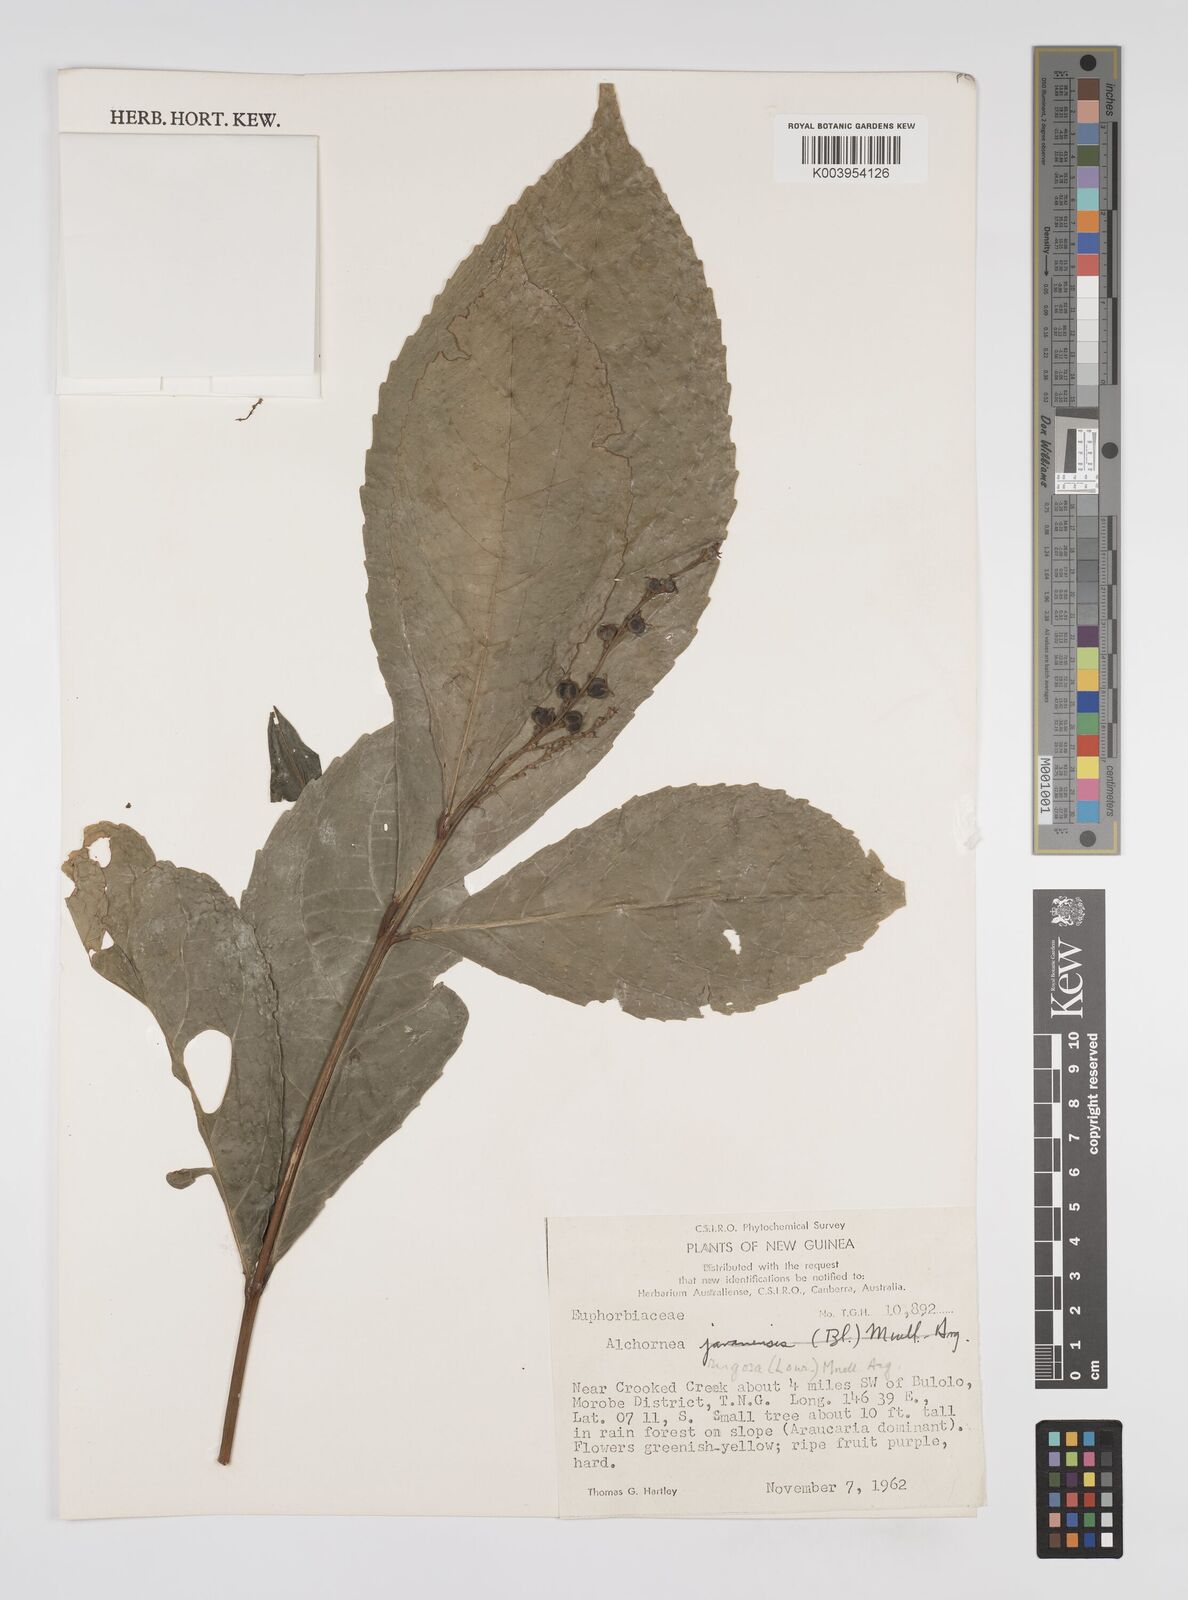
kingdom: Plantae
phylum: Tracheophyta
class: Magnoliopsida
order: Malpighiales
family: Euphorbiaceae
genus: Alchornea
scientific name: Alchornea rugosa
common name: Alchorntree
